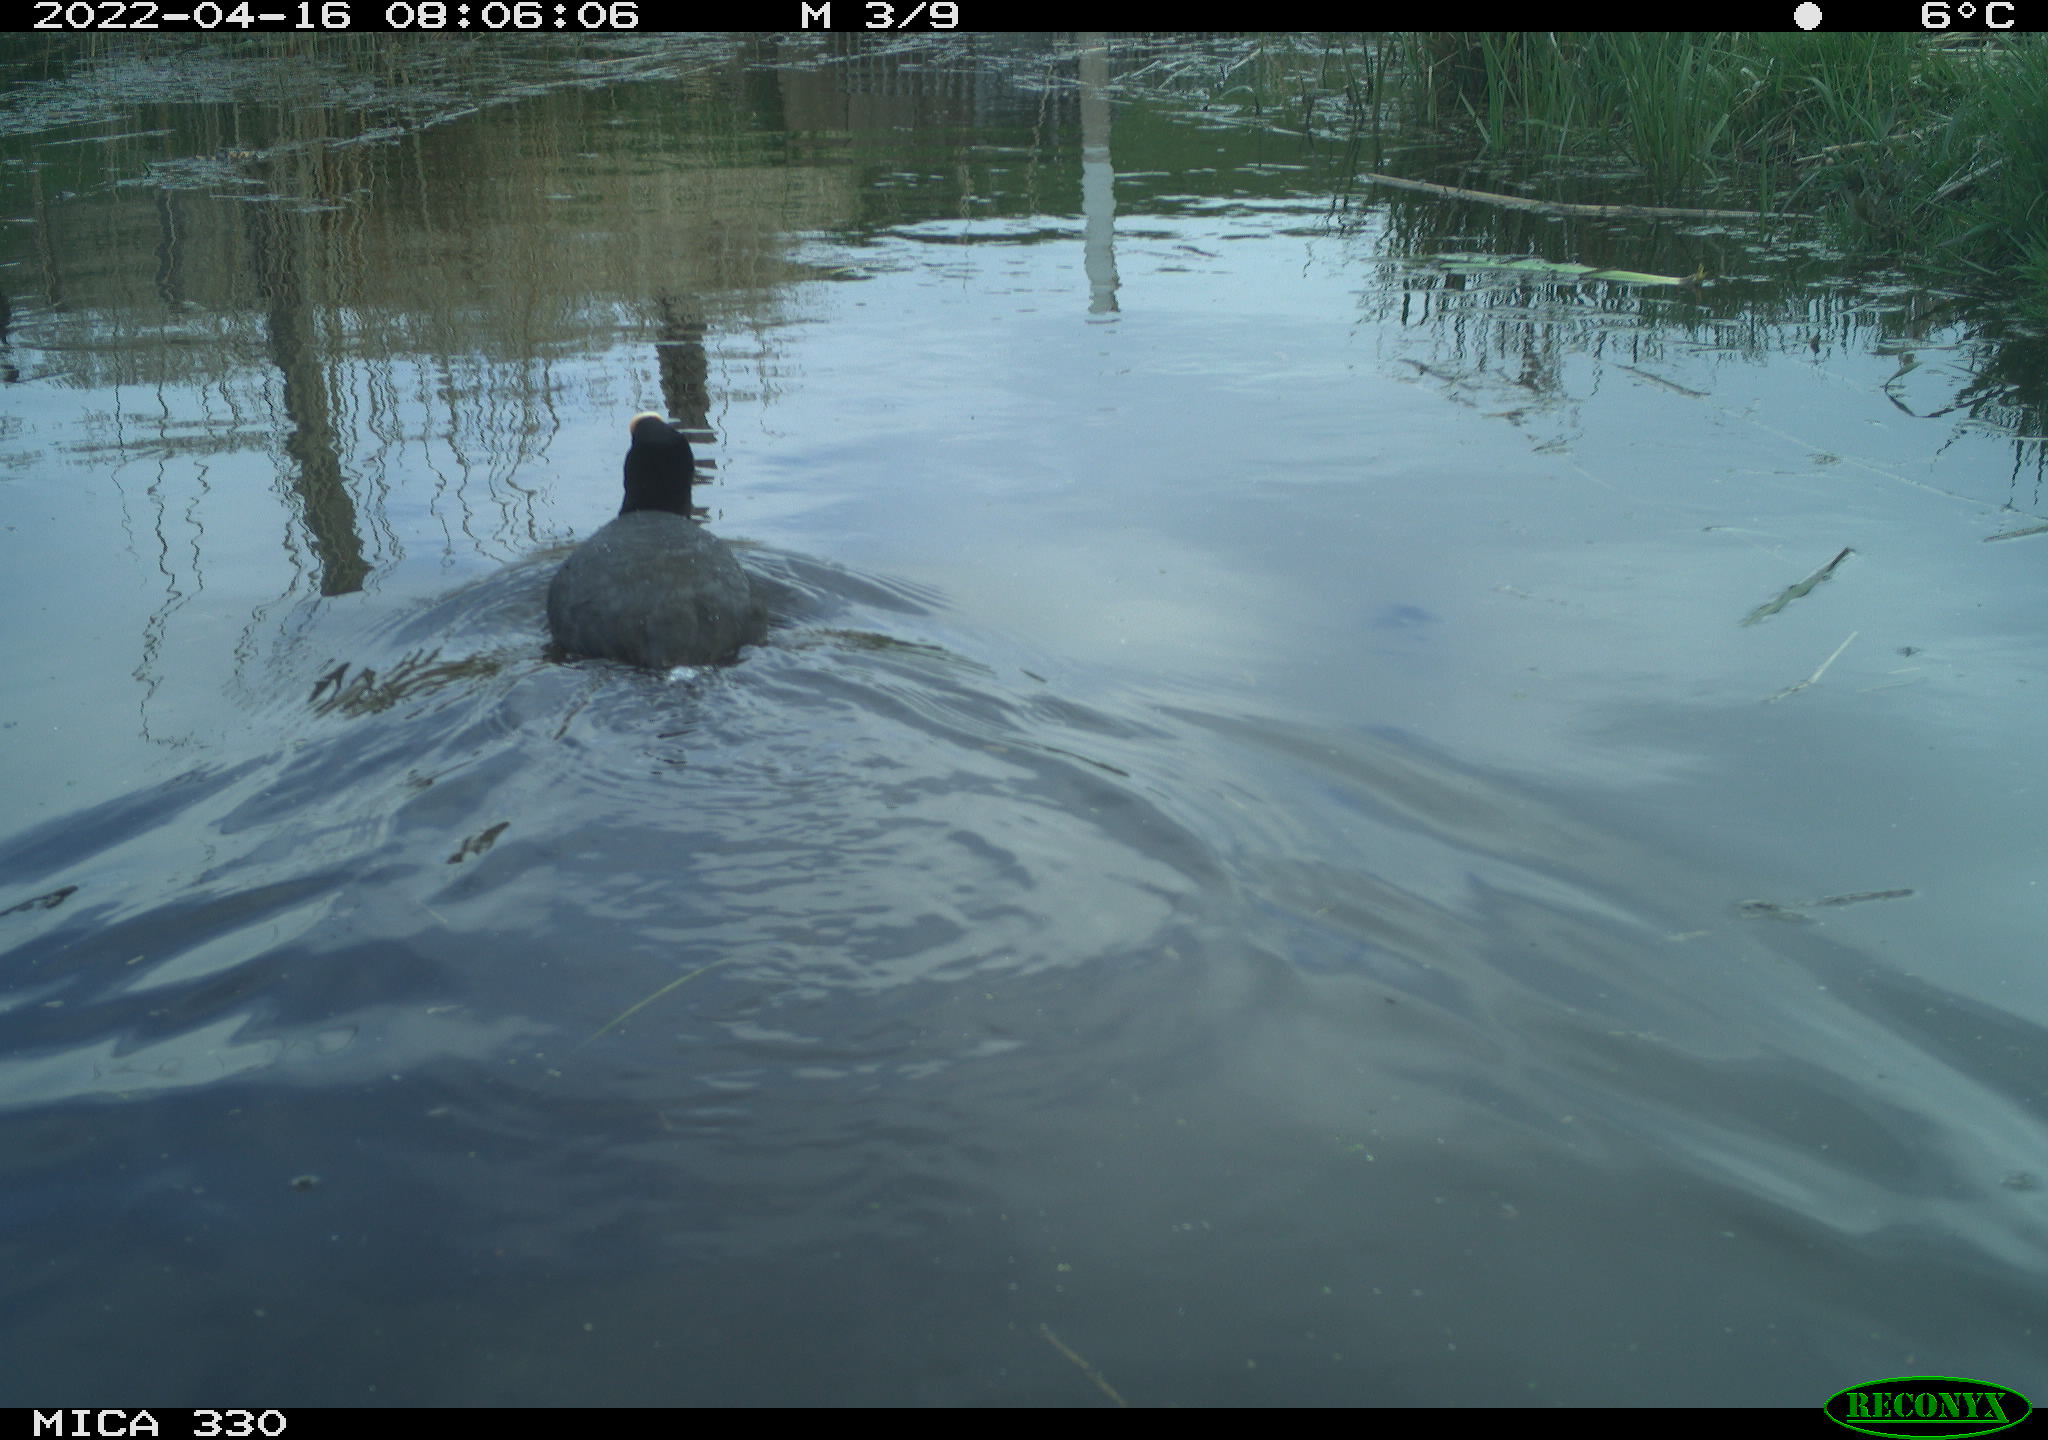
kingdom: Animalia
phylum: Chordata
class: Aves
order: Gruiformes
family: Rallidae
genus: Fulica
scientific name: Fulica atra
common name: Eurasian coot
